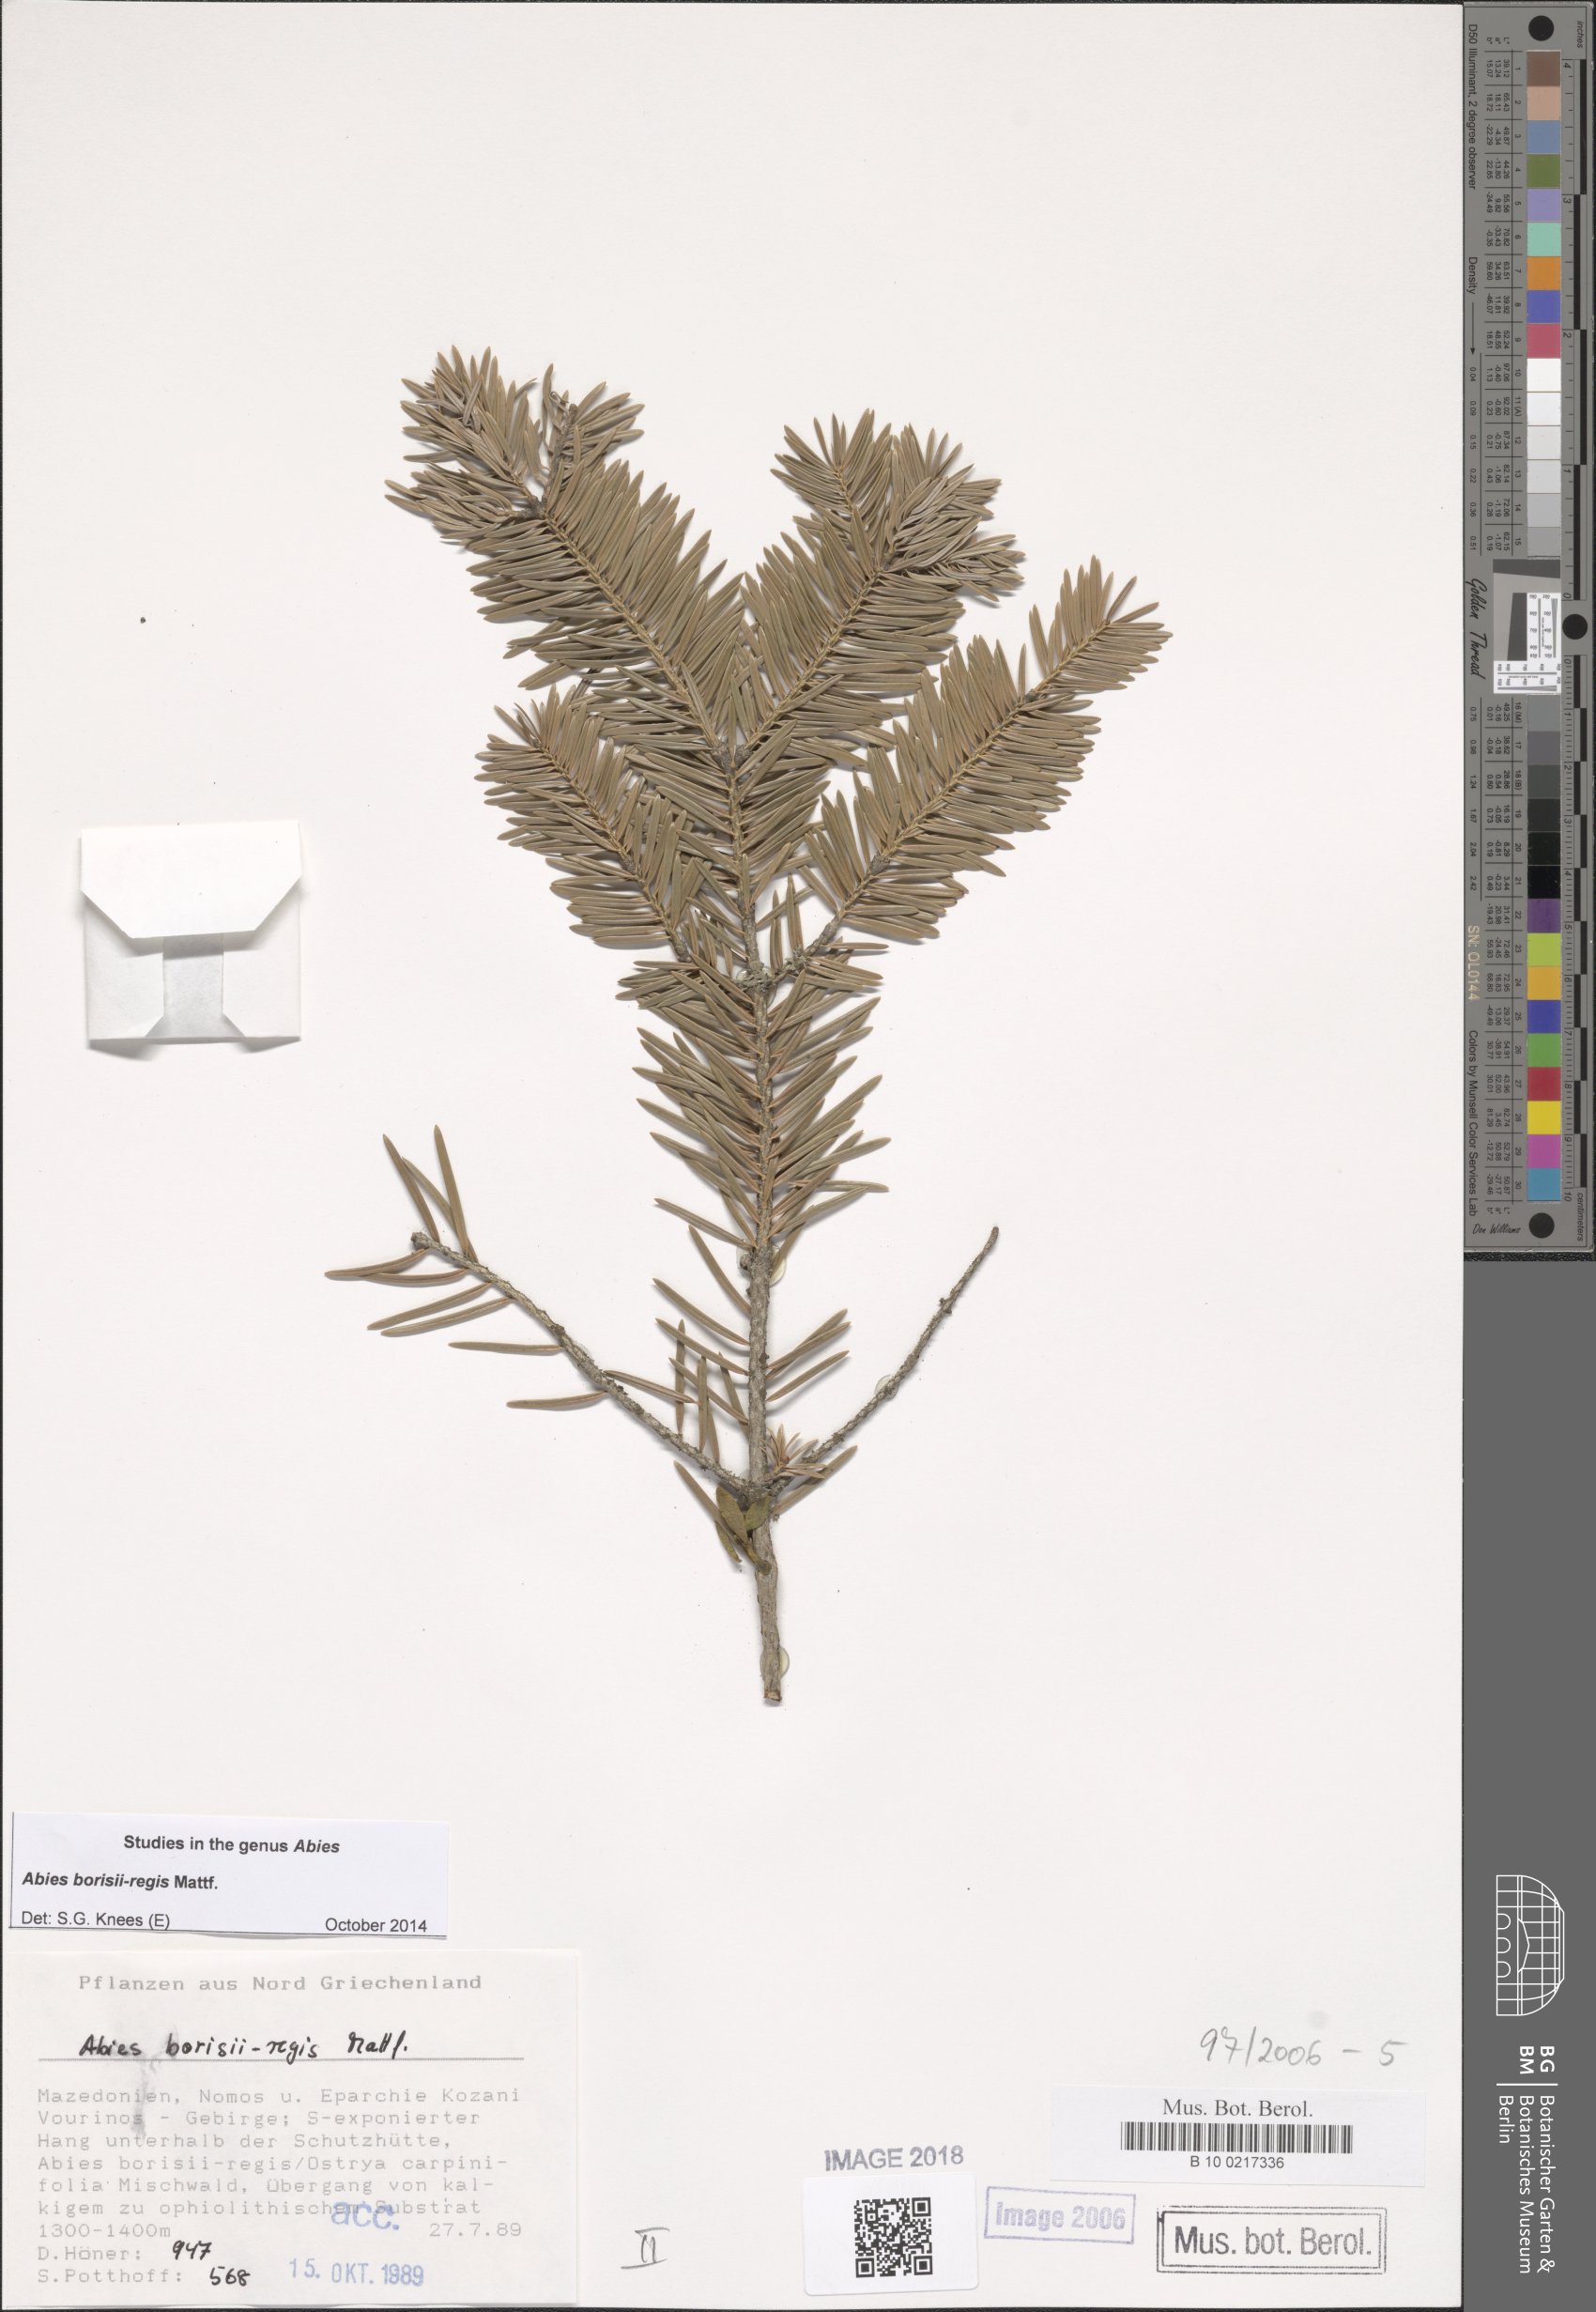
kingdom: Plantae
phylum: Tracheophyta
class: Pinopsida
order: Pinales
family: Pinaceae
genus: Abies
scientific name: Abies borisii-regis
